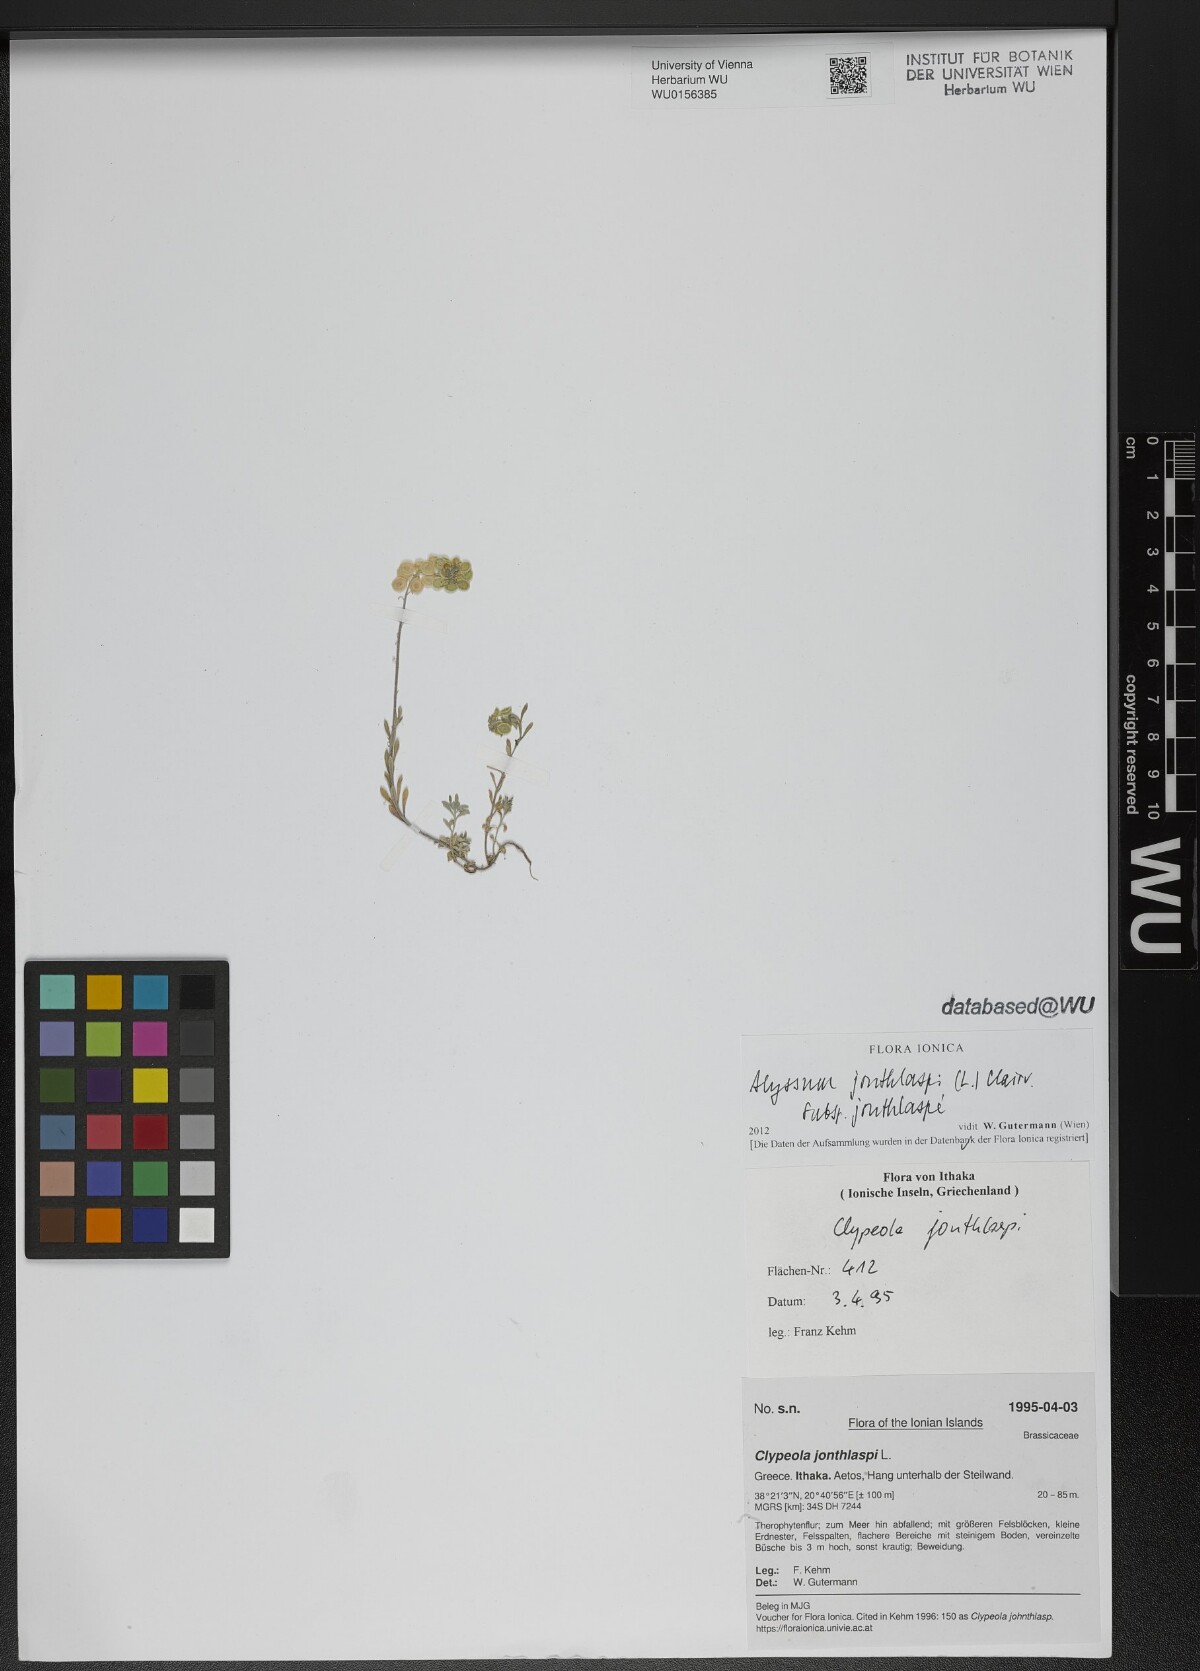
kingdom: Plantae
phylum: Tracheophyta
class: Magnoliopsida
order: Brassicales
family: Brassicaceae
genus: Clypeola
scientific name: Clypeola jonthlaspi
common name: Disk cress
